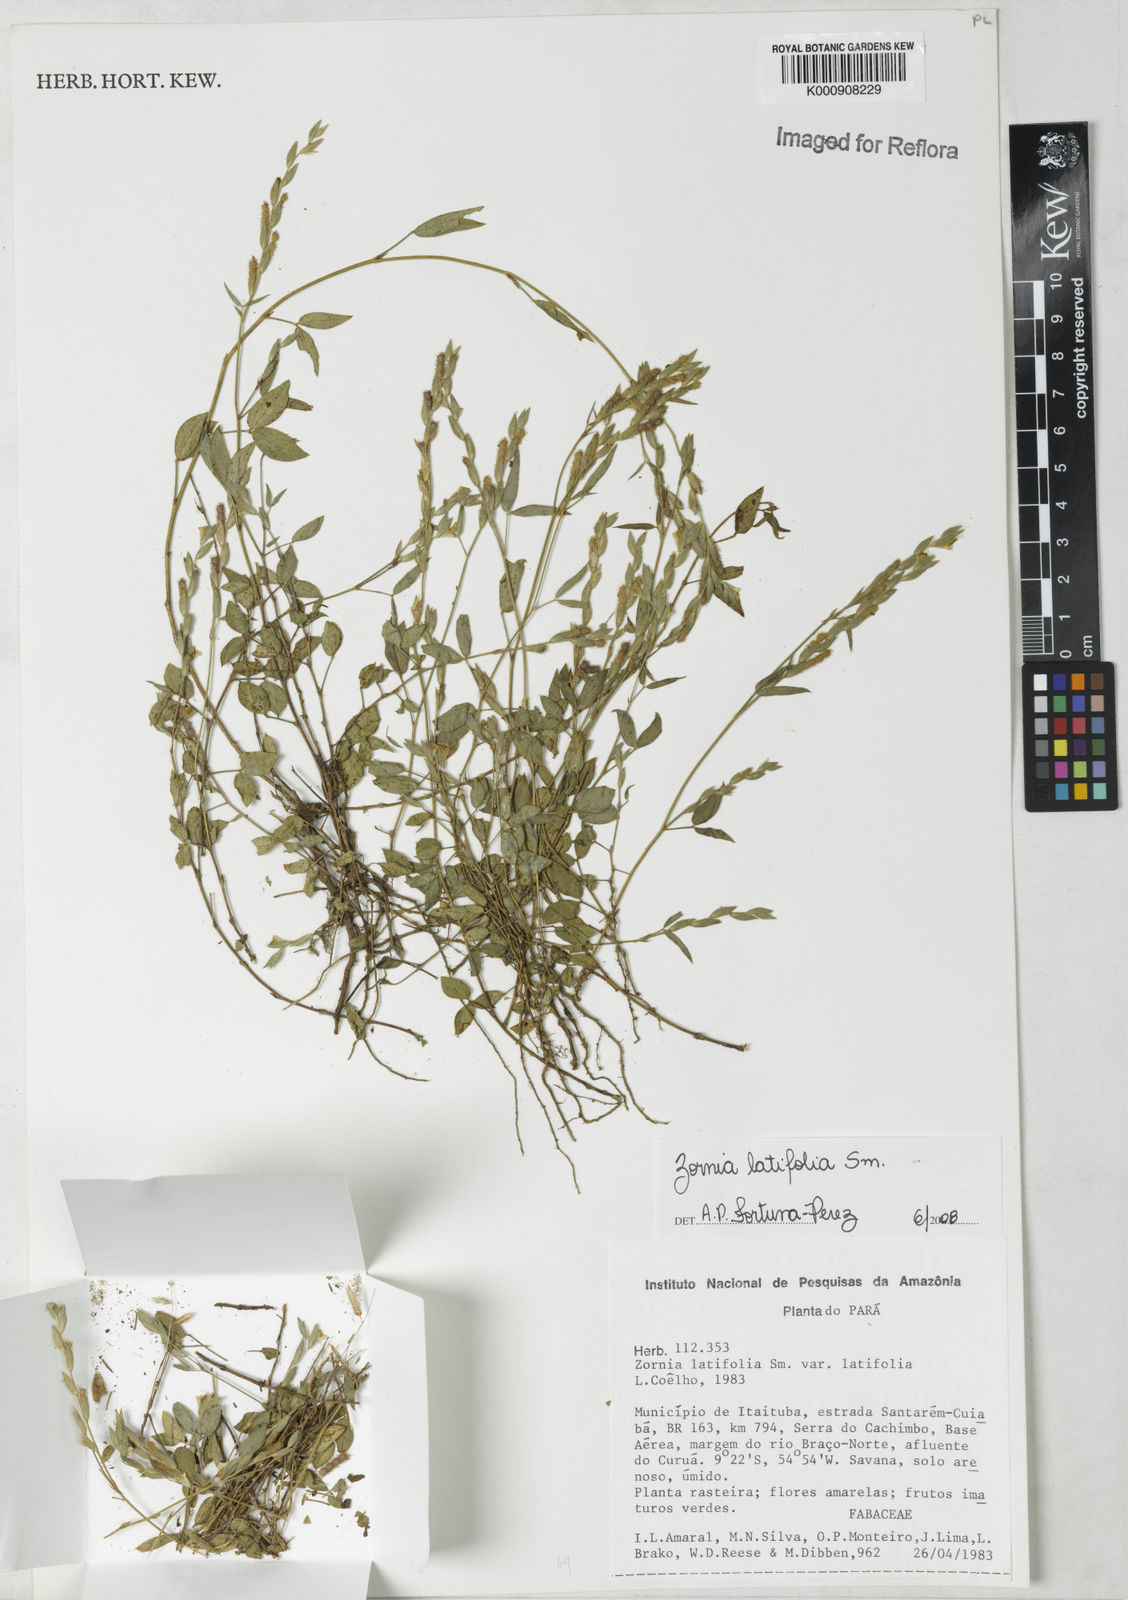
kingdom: Plantae
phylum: Tracheophyta
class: Magnoliopsida
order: Fabales
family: Fabaceae
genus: Zornia
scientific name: Zornia latifolia
